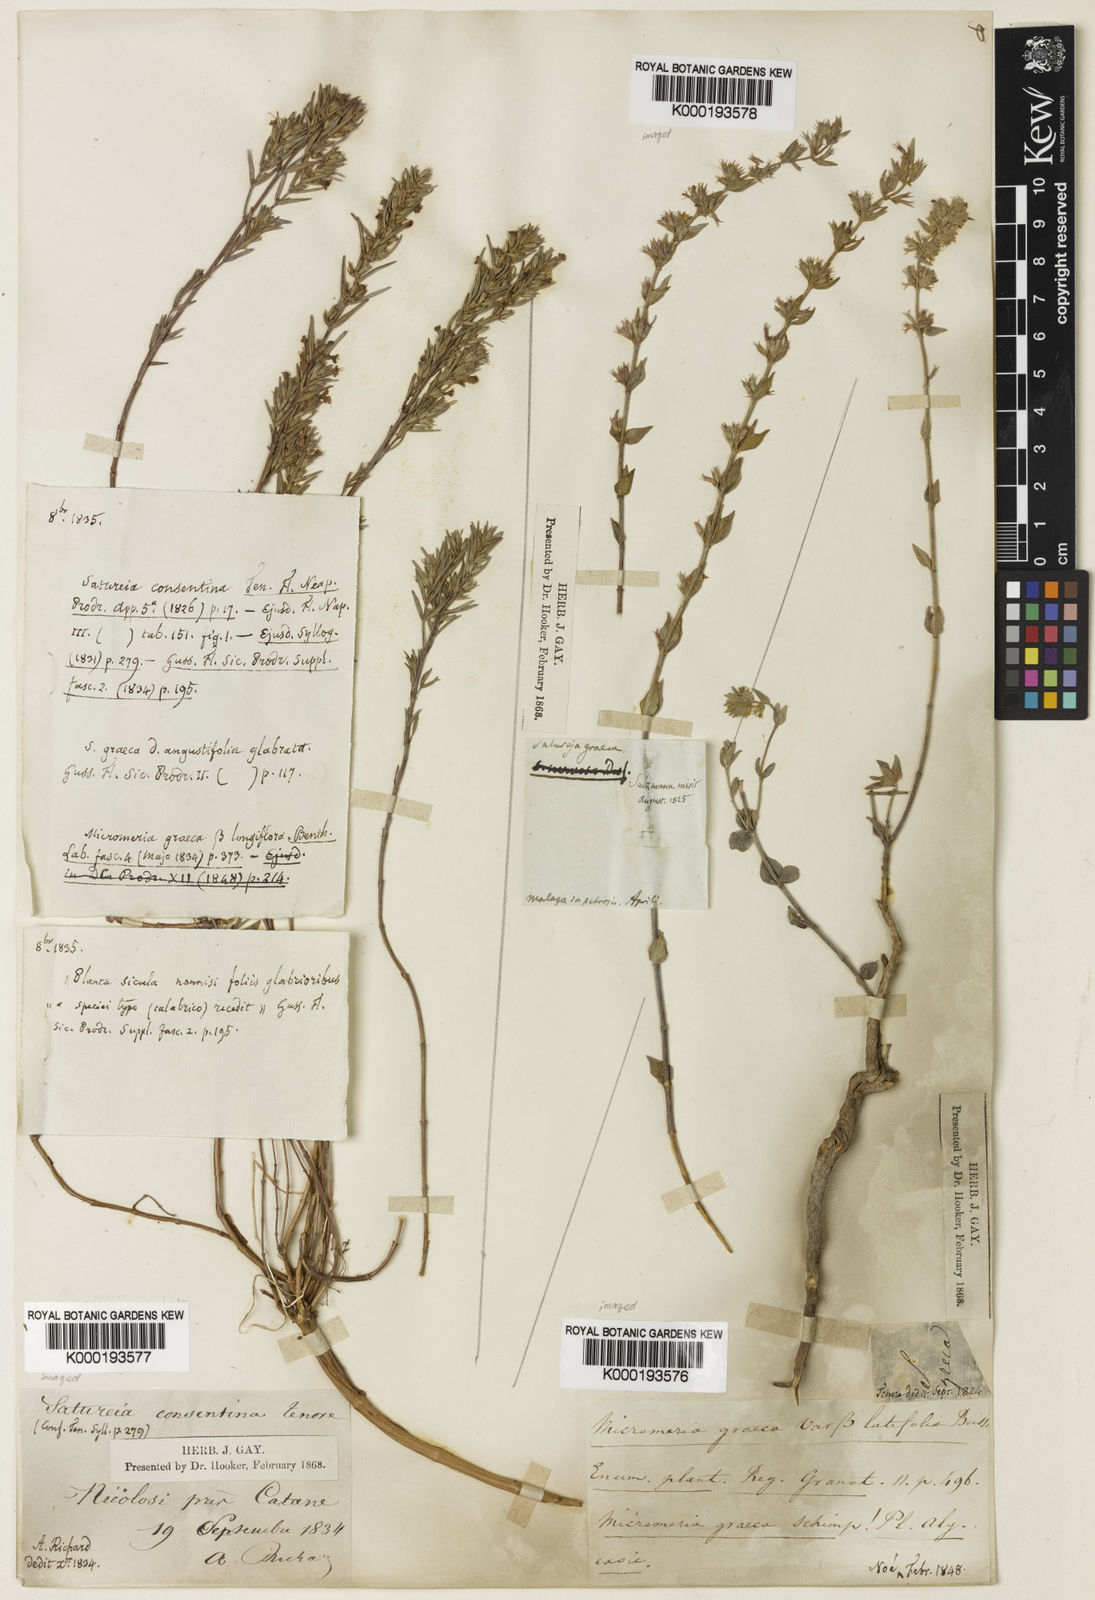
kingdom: Plantae
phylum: Tracheophyta
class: Magnoliopsida
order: Lamiales
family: Lamiaceae
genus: Micromeria
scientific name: Micromeria graeca
